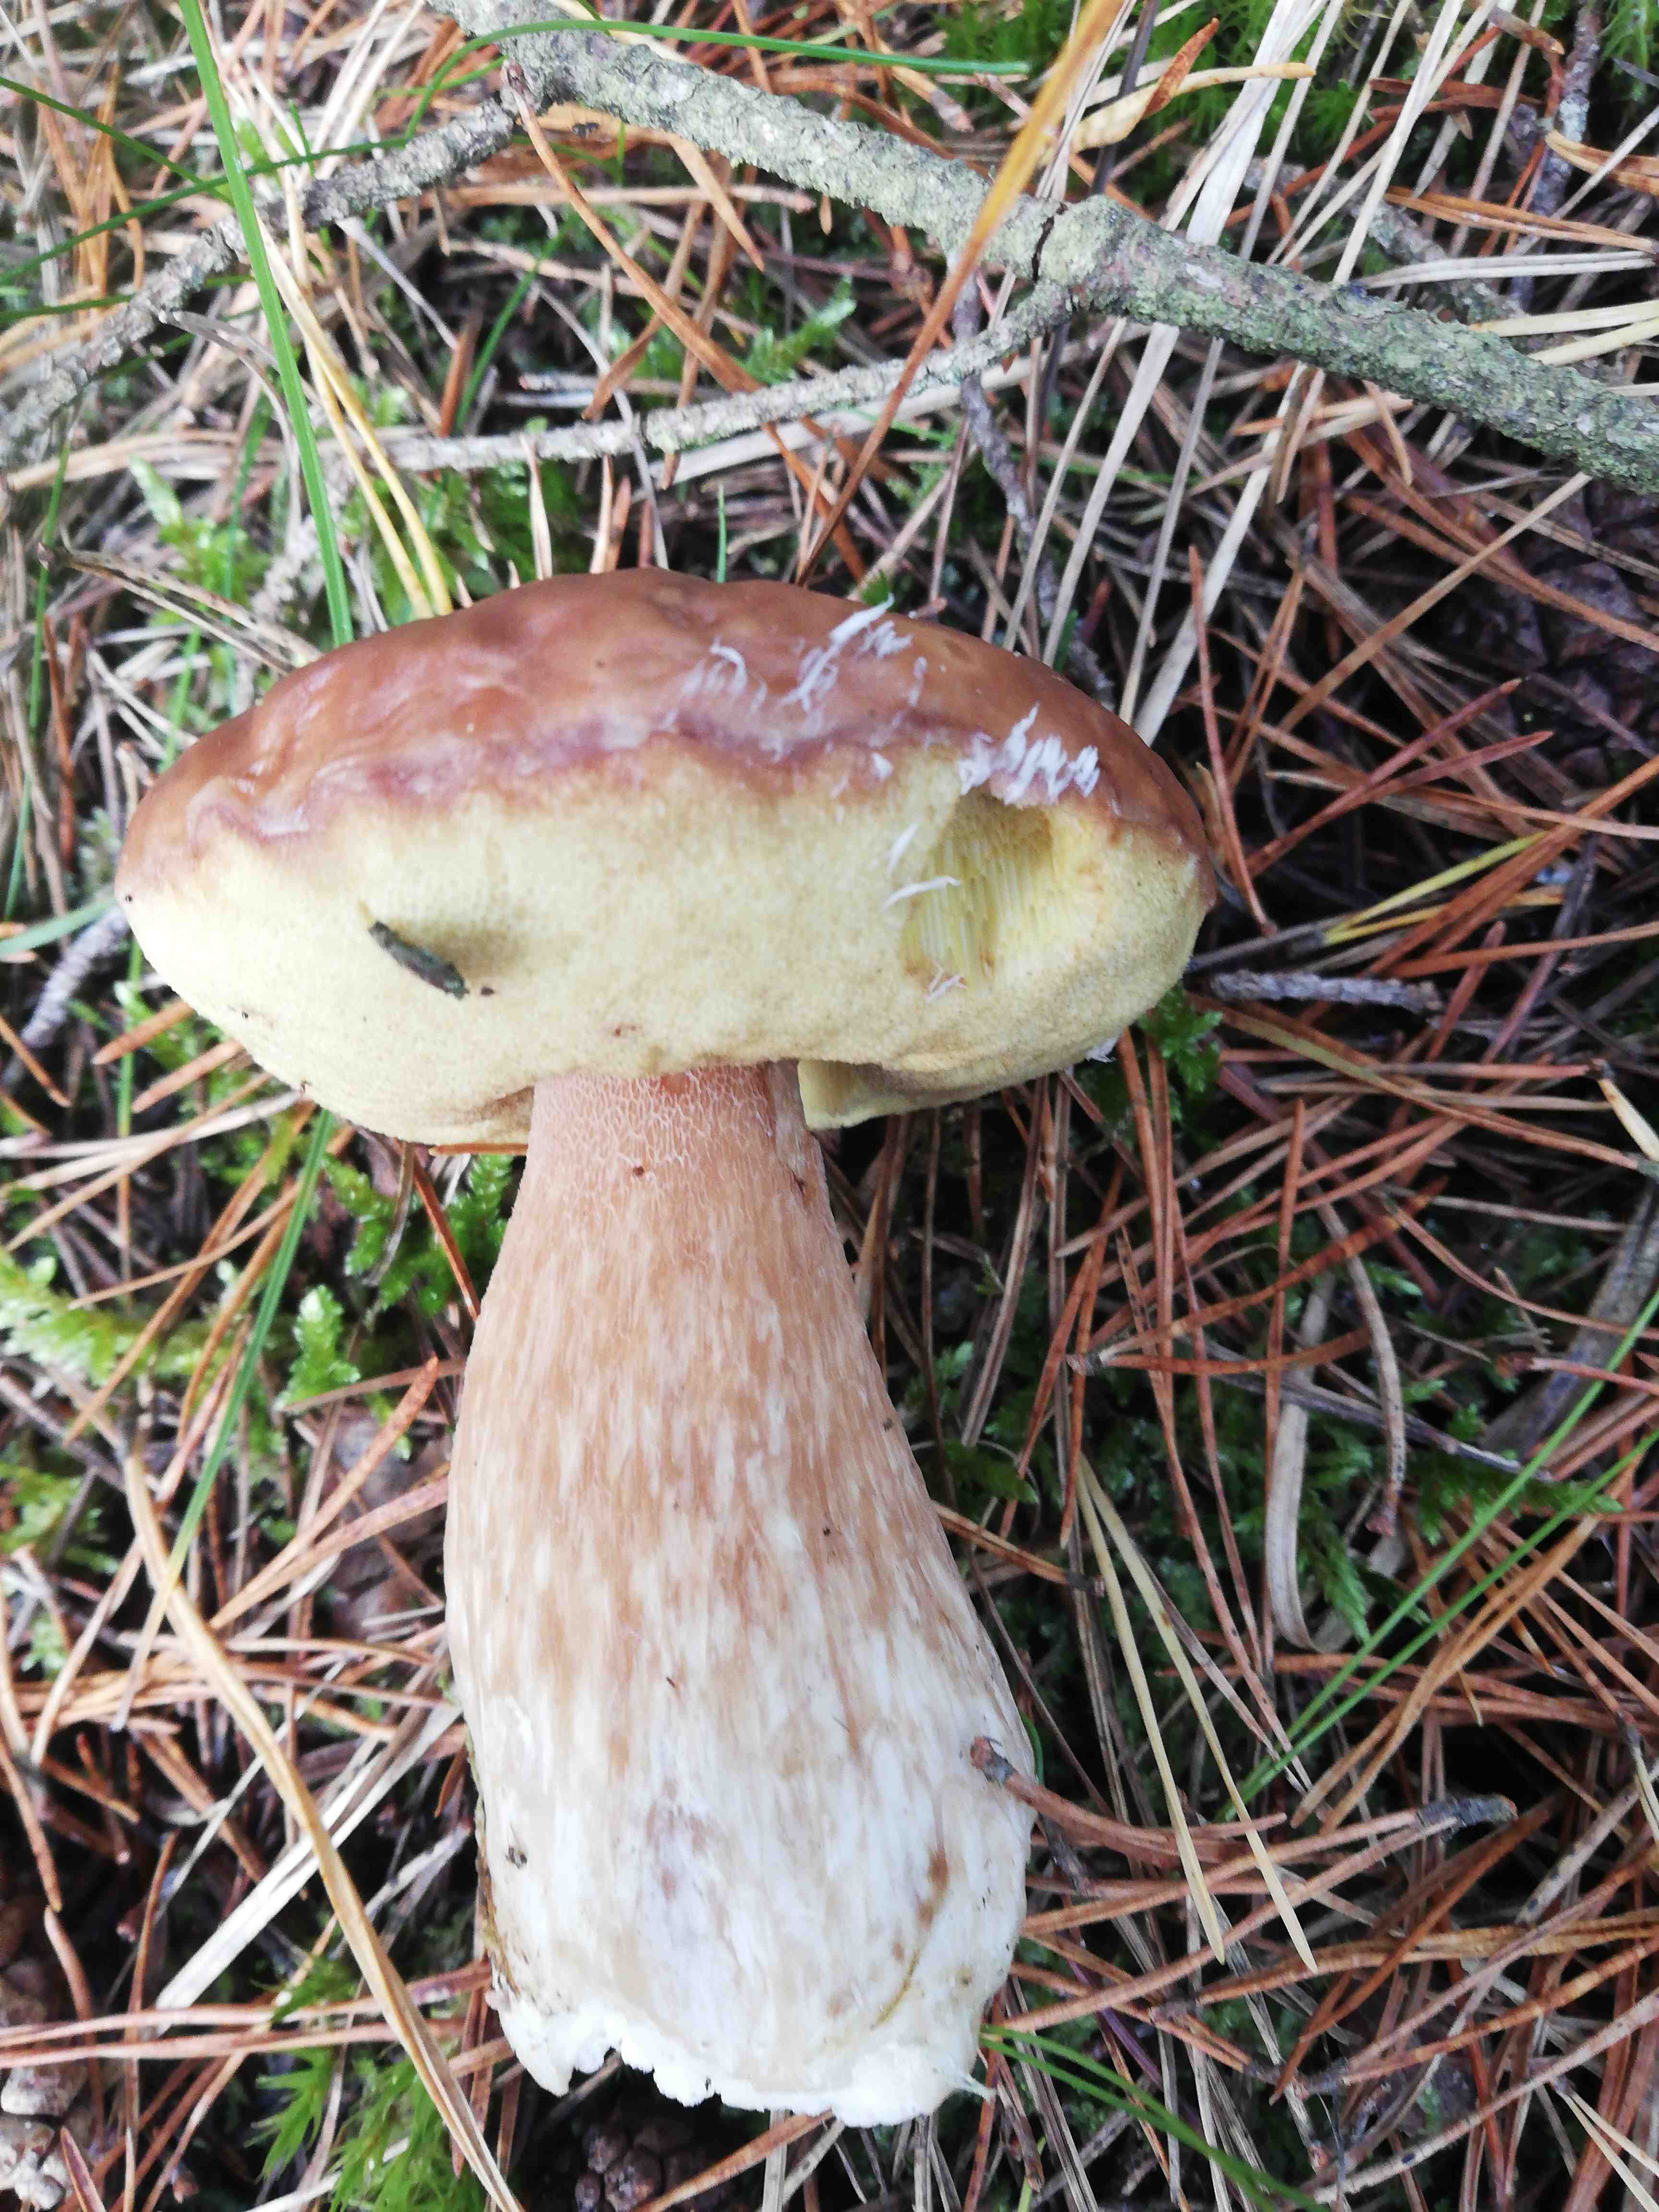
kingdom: Fungi
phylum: Basidiomycota
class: Agaricomycetes
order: Boletales
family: Boletaceae
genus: Boletus
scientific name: Boletus edulis
